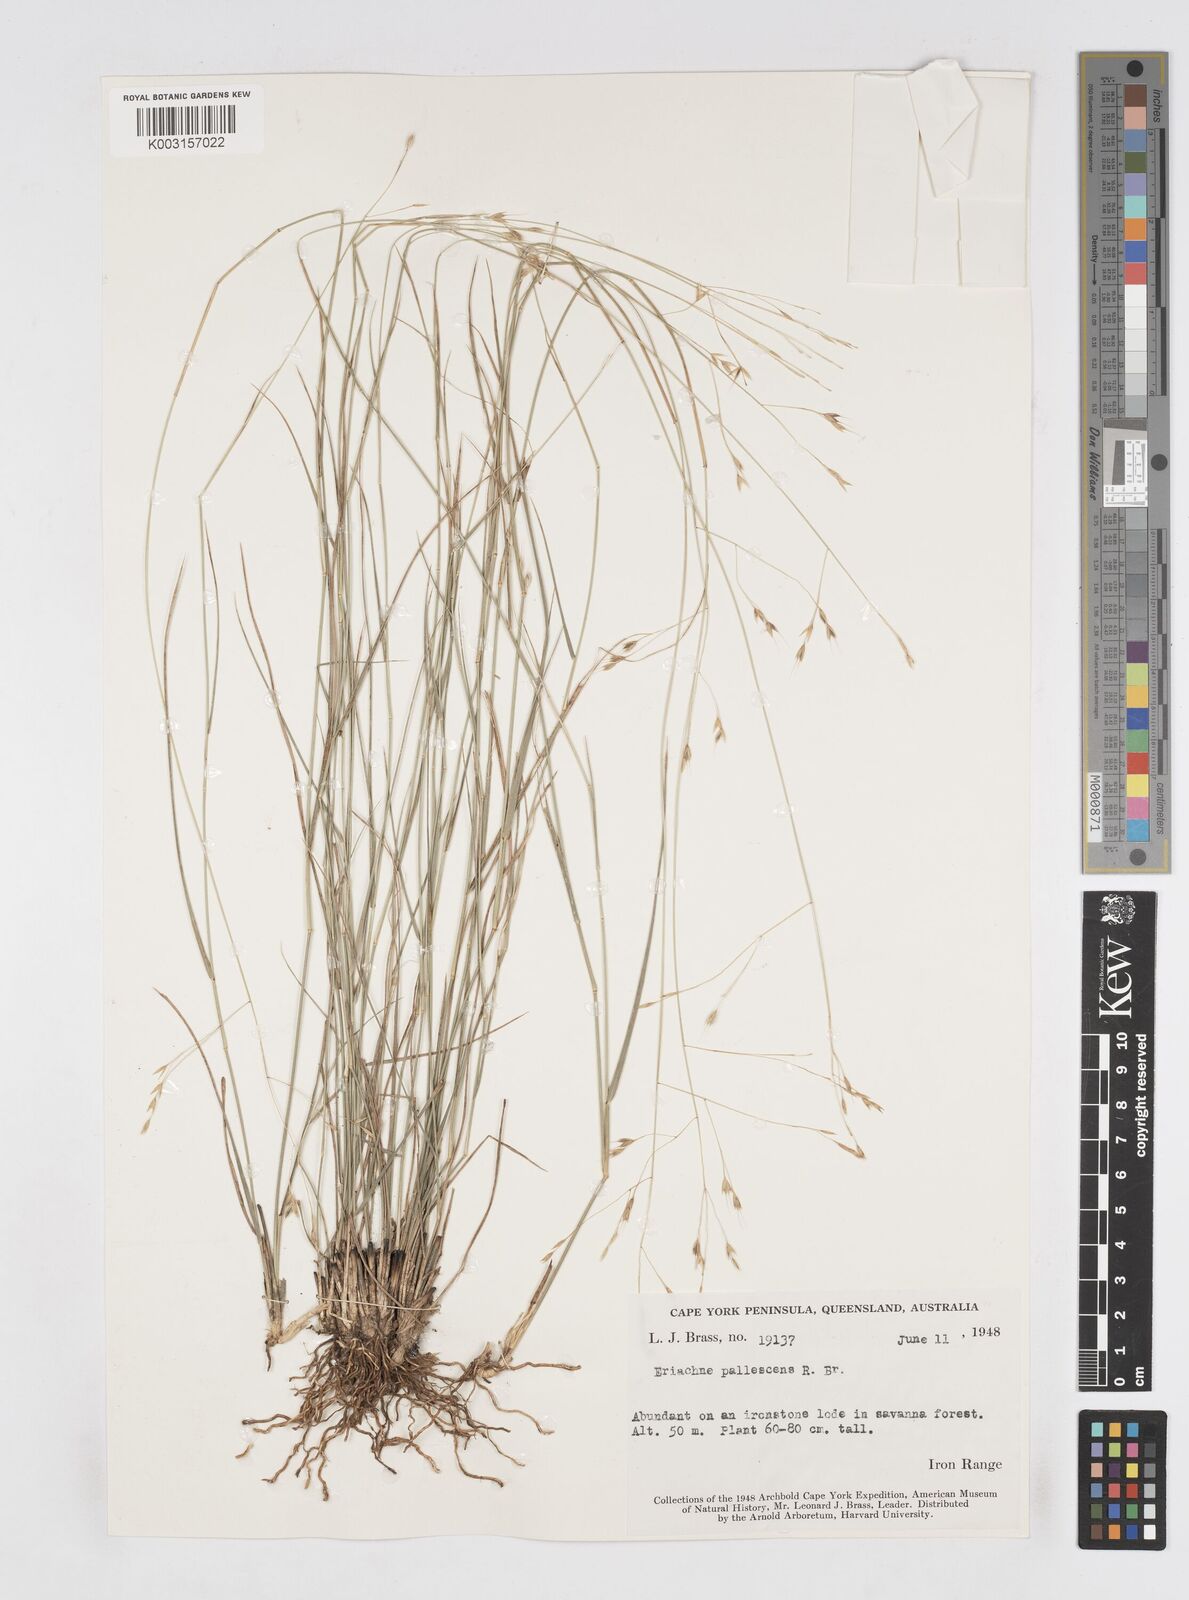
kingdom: Plantae
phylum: Tracheophyta
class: Liliopsida
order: Poales
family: Poaceae
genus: Eriachne
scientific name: Eriachne pallescens
